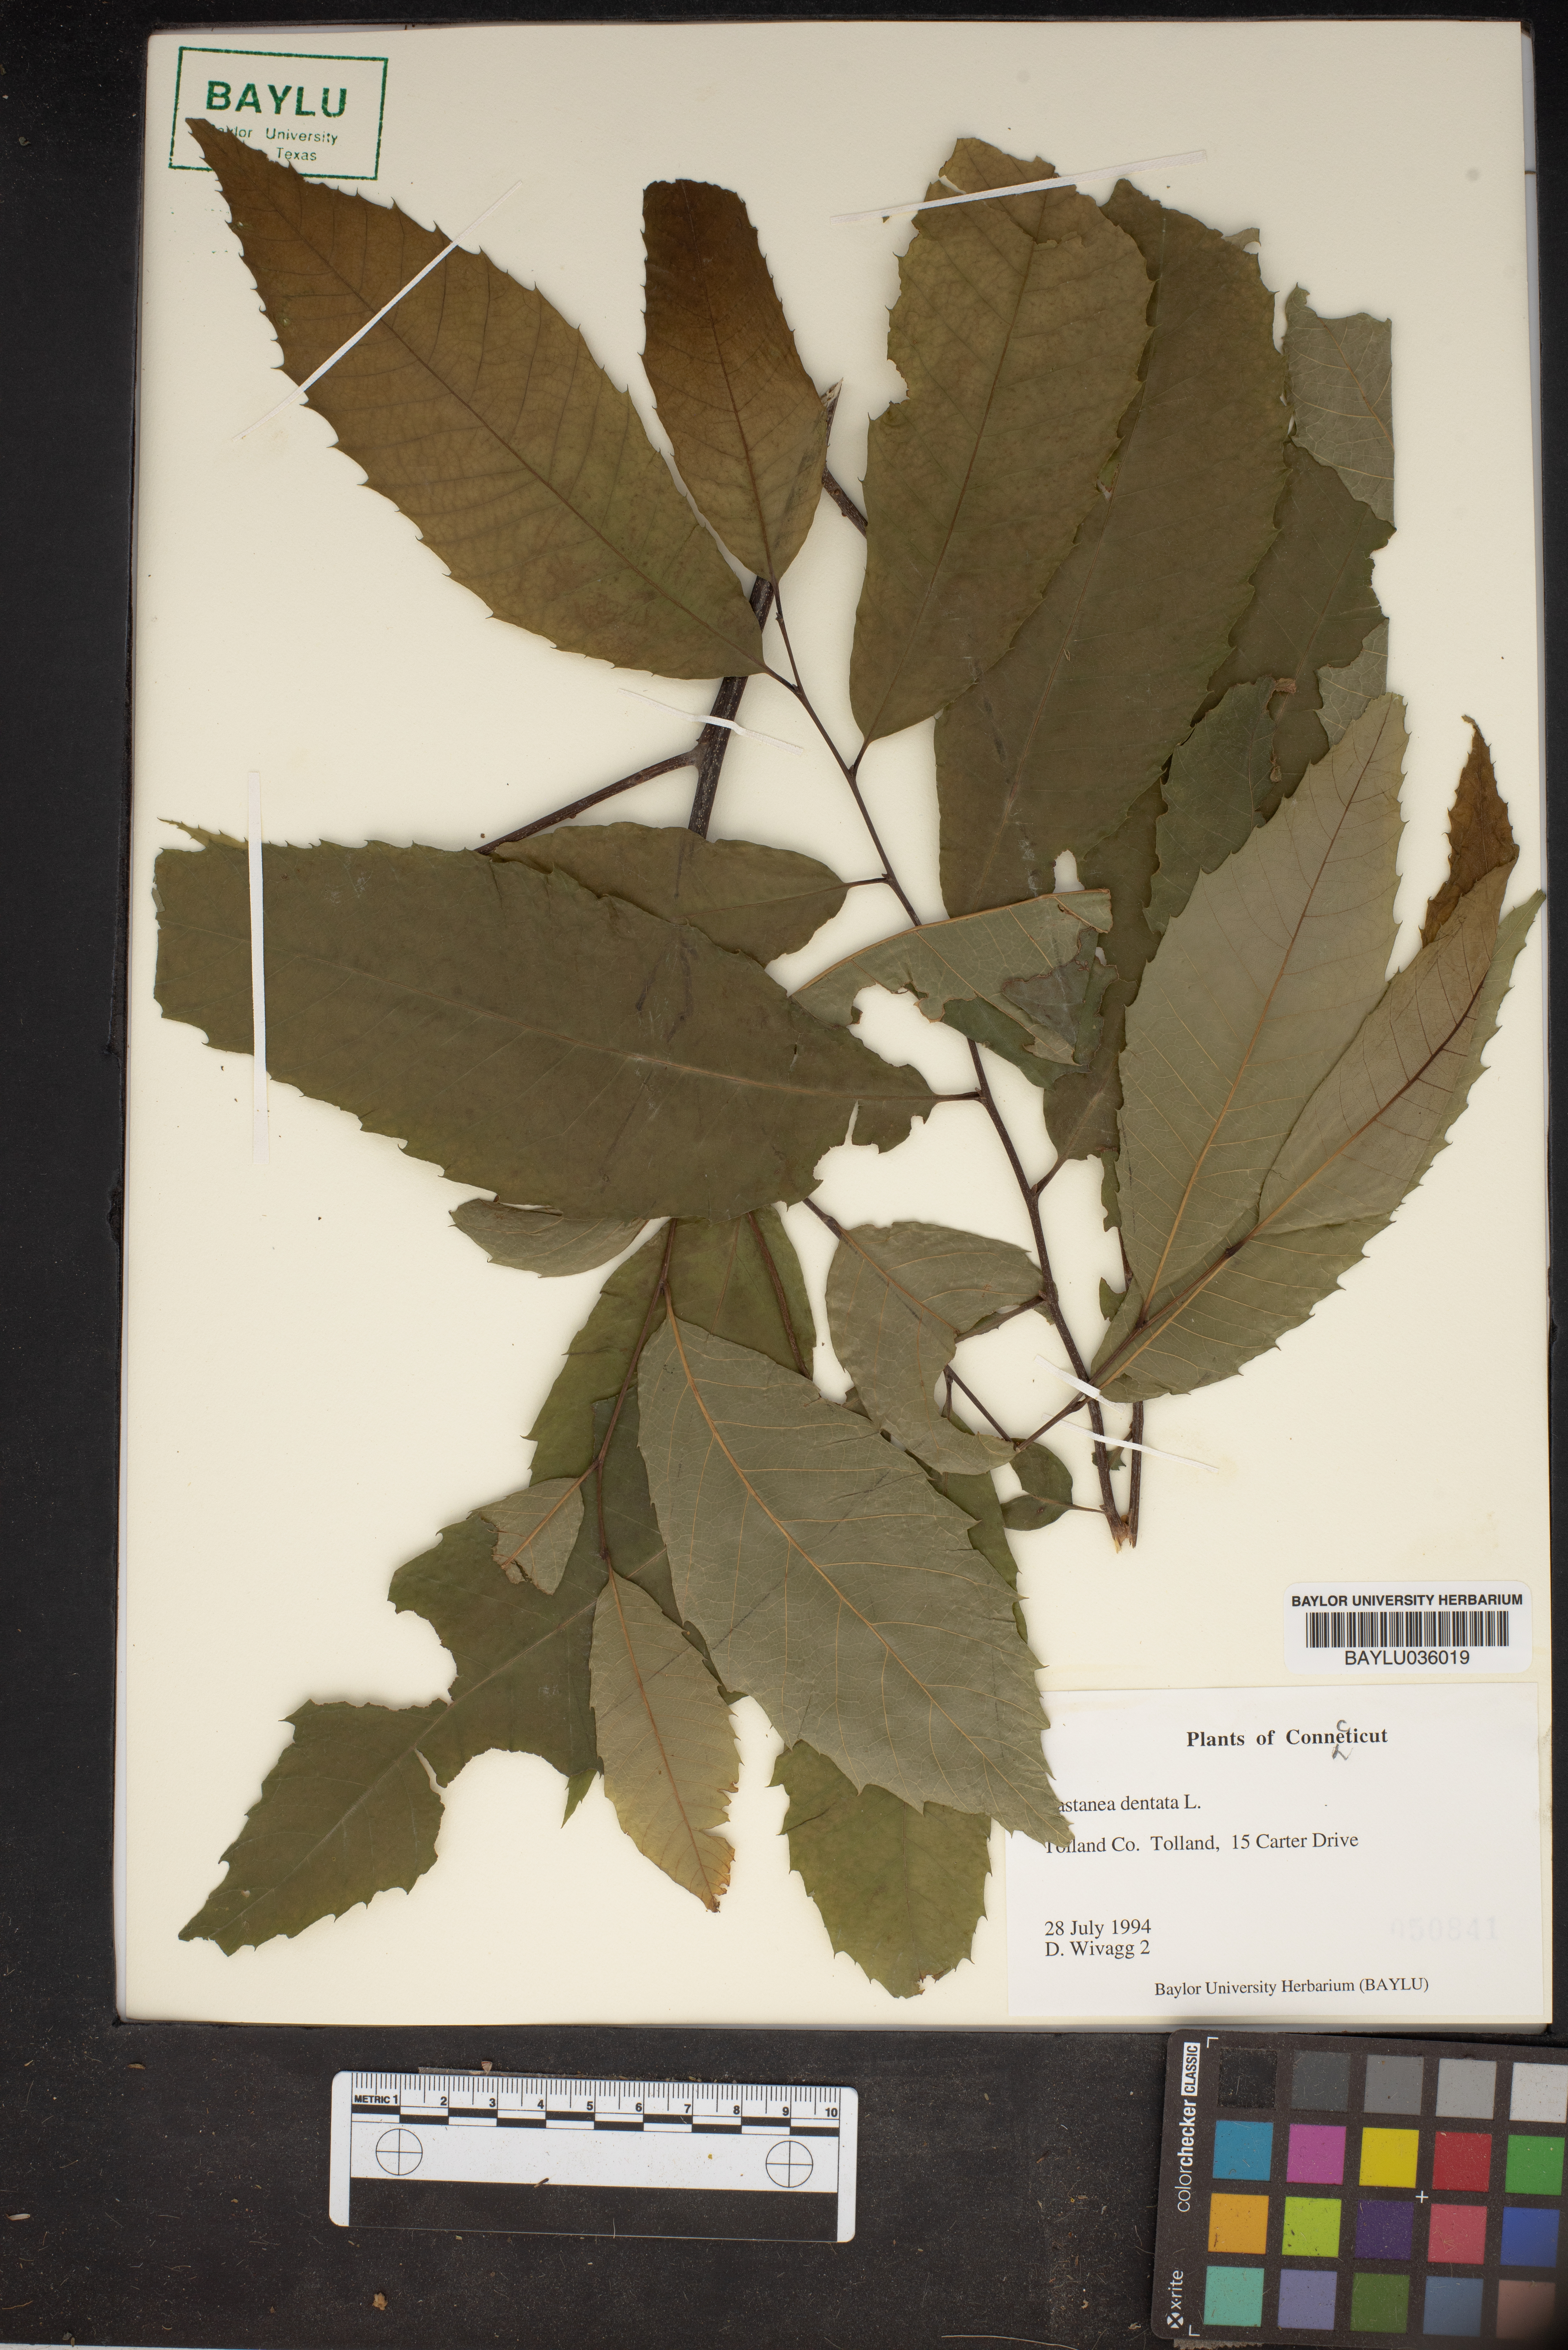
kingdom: Plantae
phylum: Tracheophyta
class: Magnoliopsida
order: Fagales
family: Fagaceae
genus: Castanea
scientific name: Castanea dentata
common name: American chestnut
